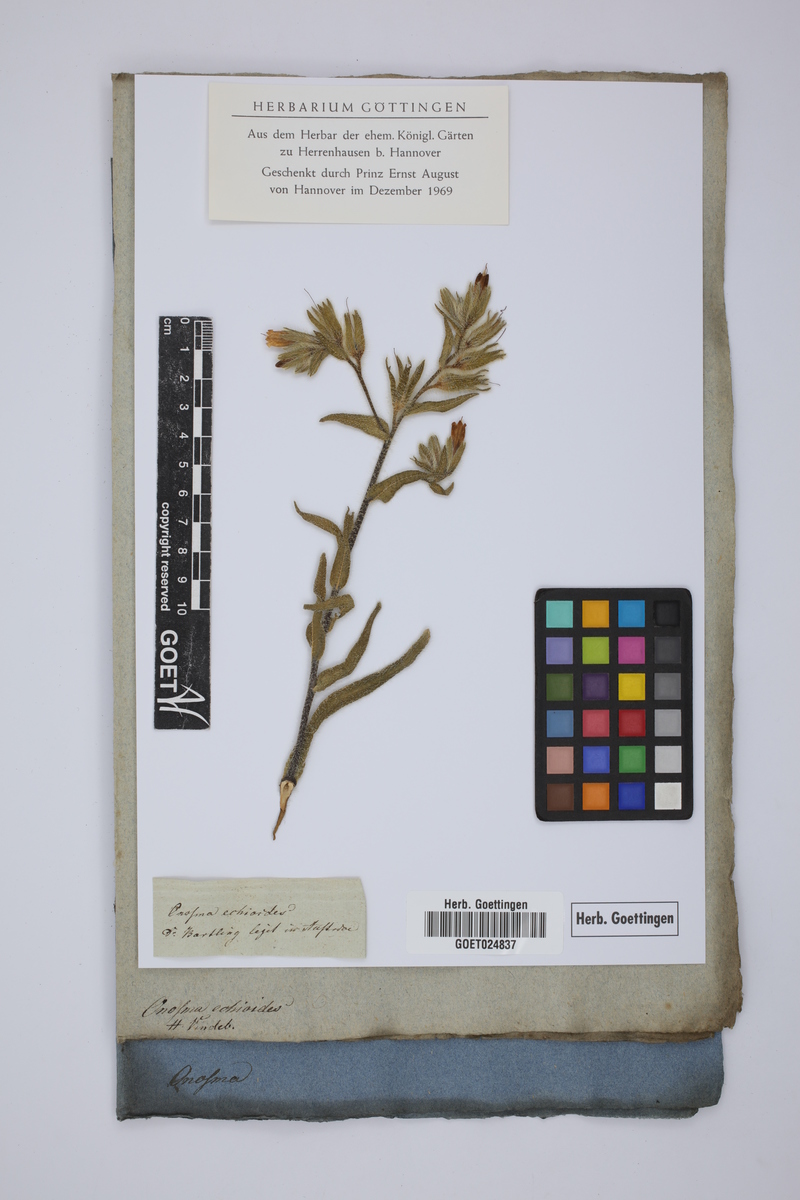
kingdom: Plantae
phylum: Tracheophyta
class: Magnoliopsida
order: Boraginales
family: Boraginaceae
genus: Onosma
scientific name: Onosma echioides
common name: Goldendrop
